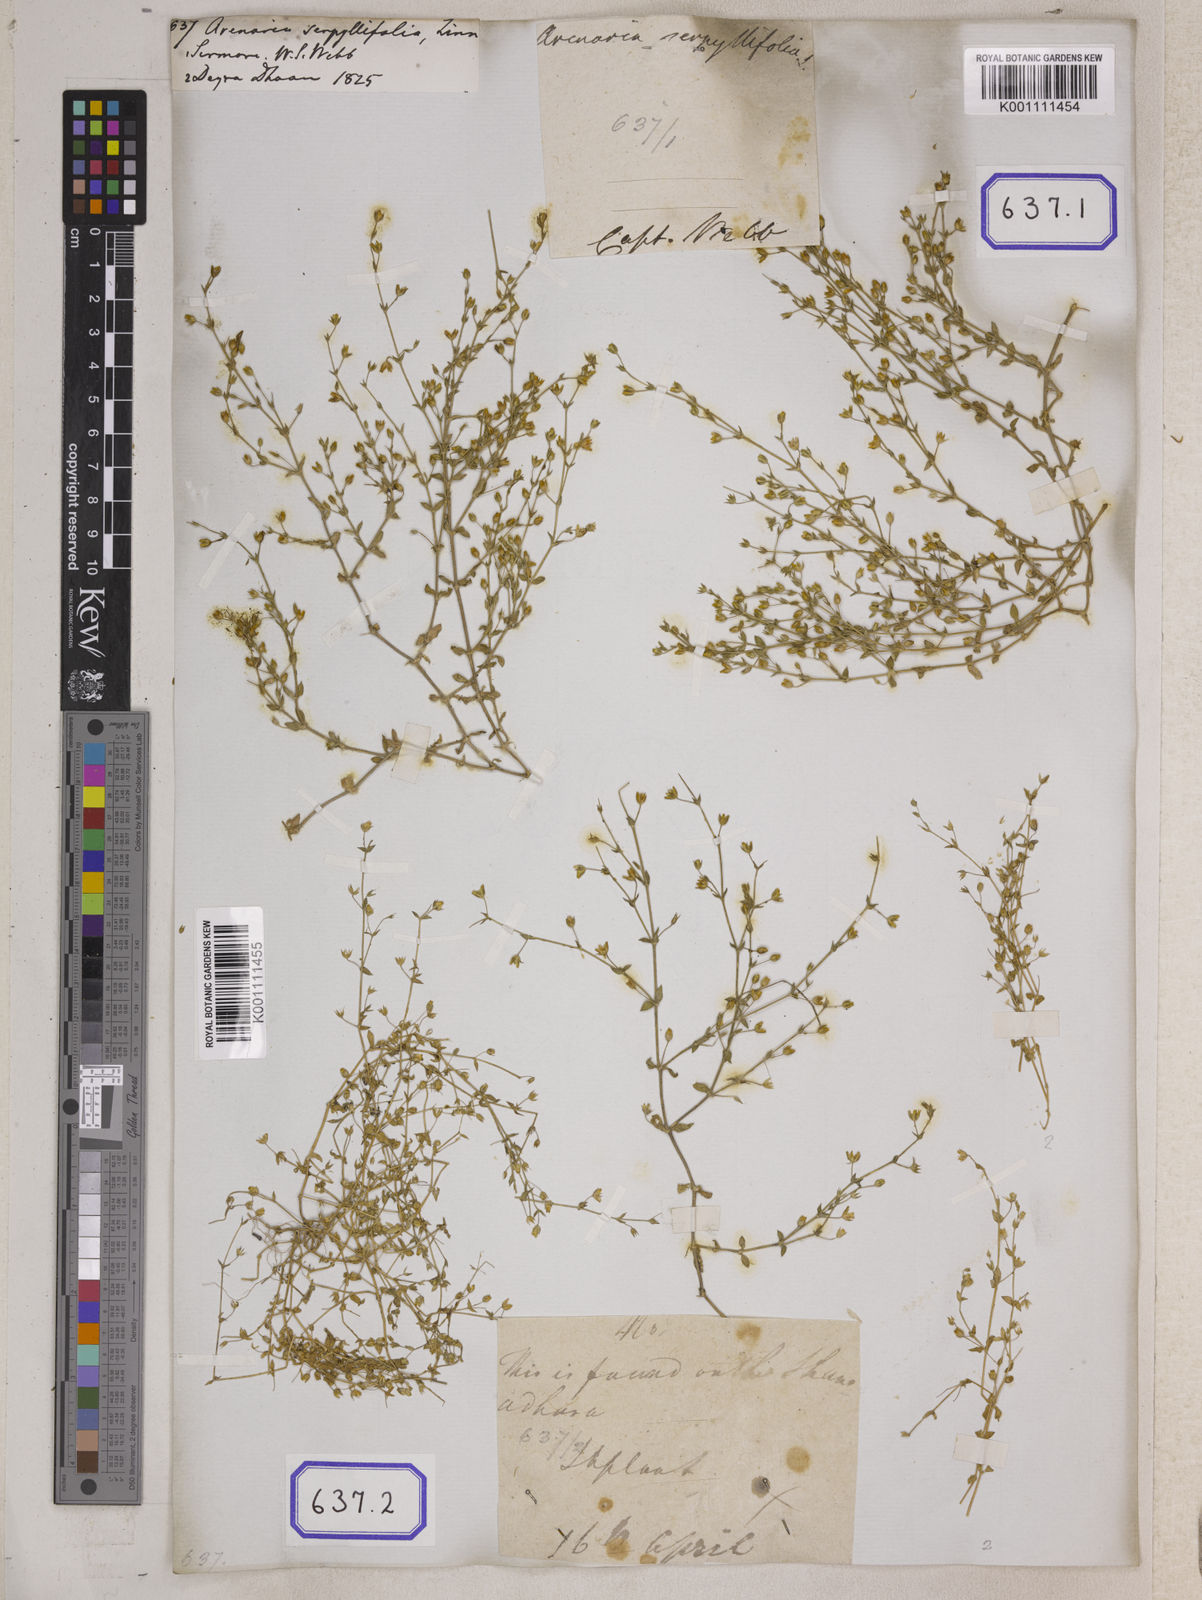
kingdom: Plantae
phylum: Tracheophyta
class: Magnoliopsida
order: Caryophyllales
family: Caryophyllaceae
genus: Arenaria
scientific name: Arenaria serpyllifolia
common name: Thyme-leaved sandwort
